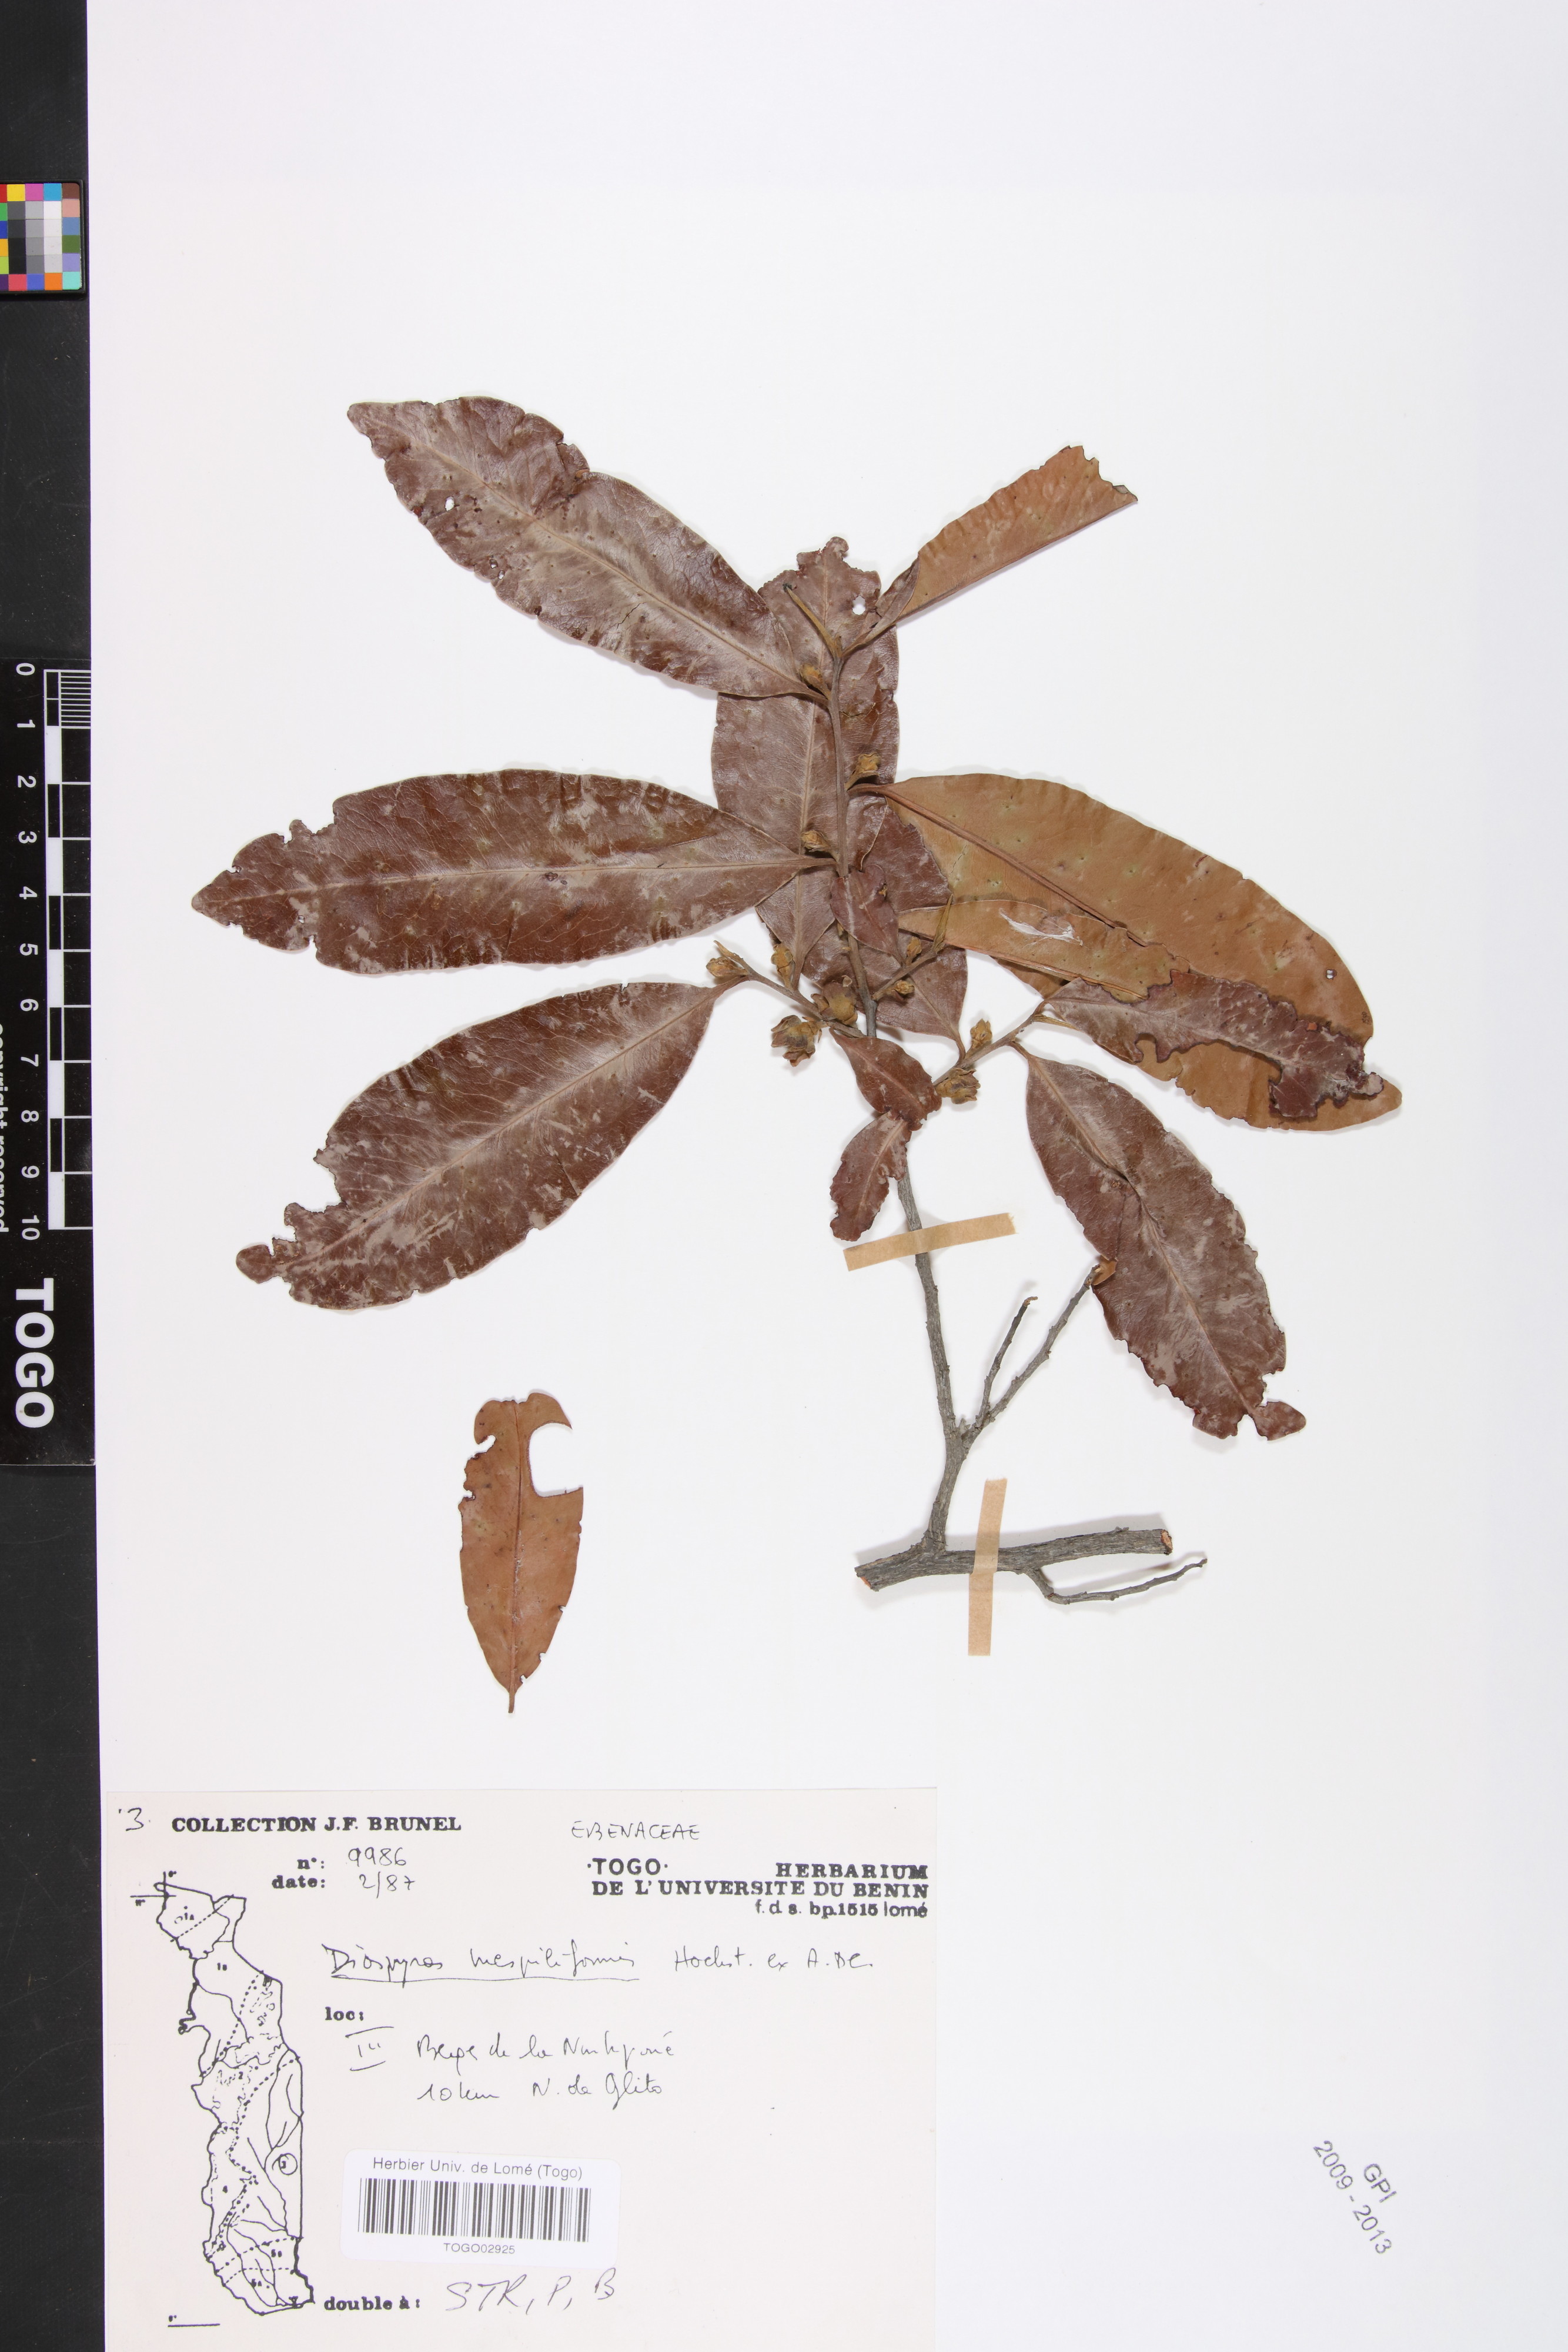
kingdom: Plantae
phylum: Tracheophyta
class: Magnoliopsida
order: Ericales
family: Ebenaceae
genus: Diospyros
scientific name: Diospyros mespiliformis
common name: Ebony diospyros
